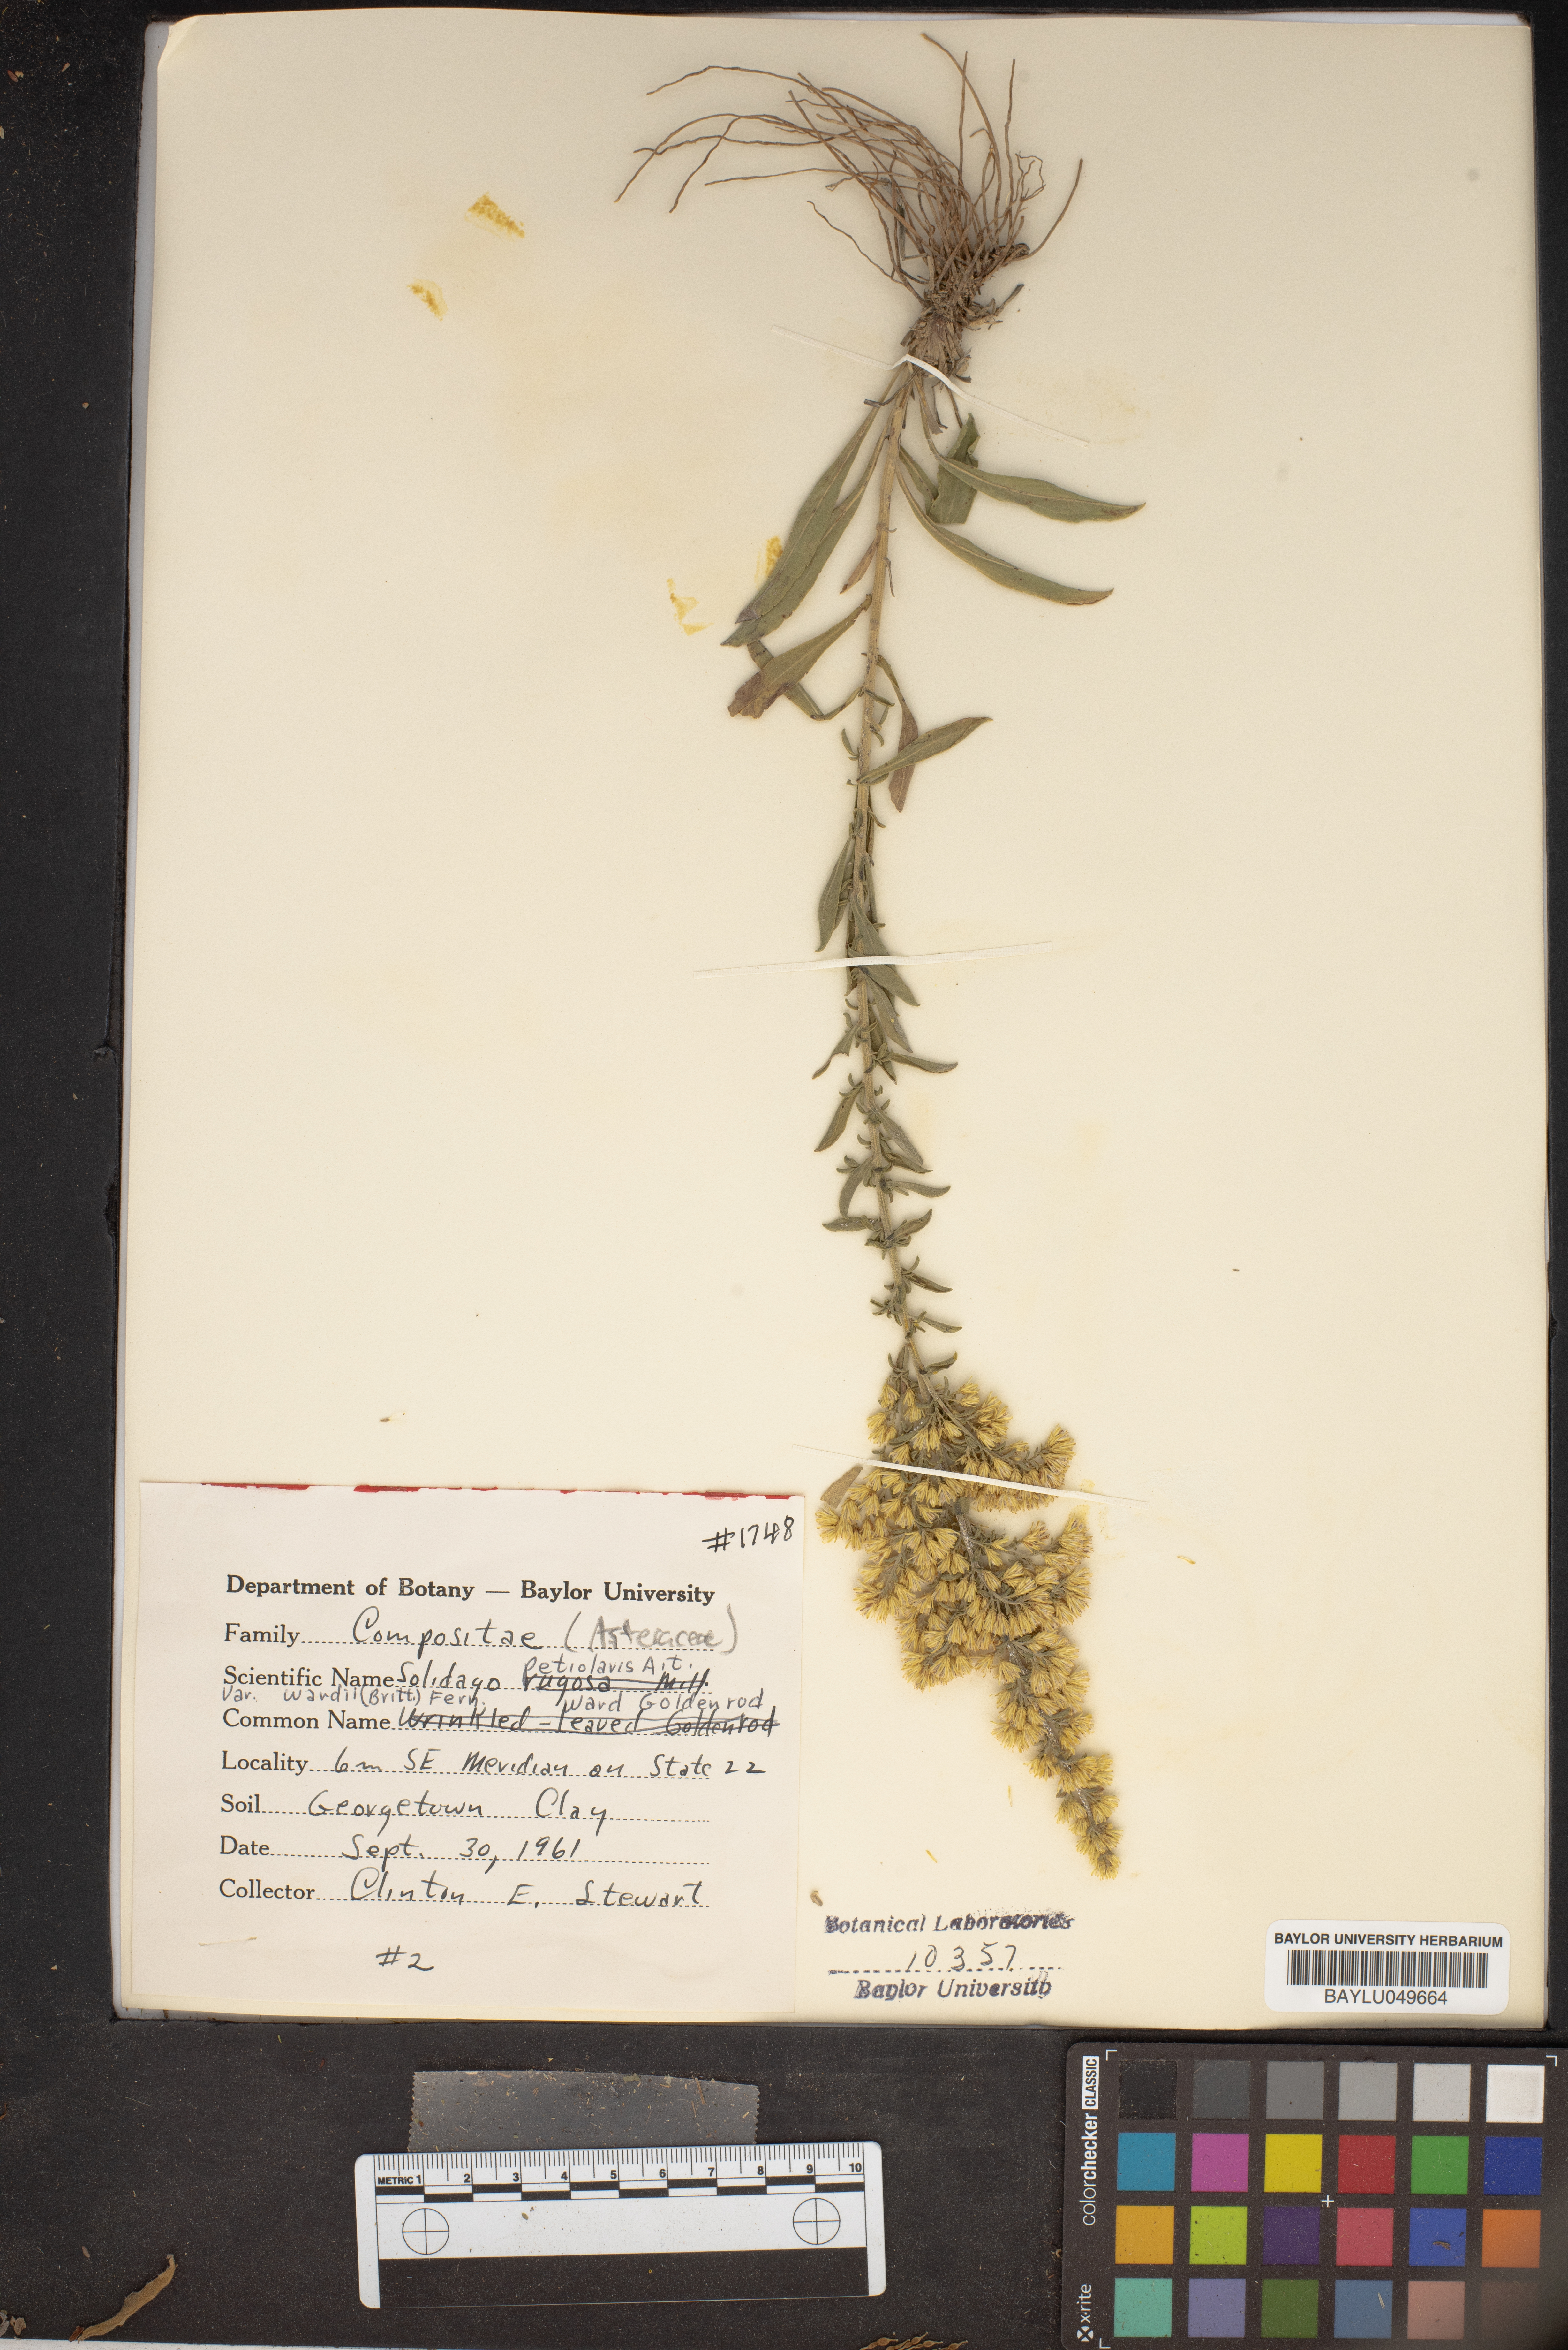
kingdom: Plantae
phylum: Tracheophyta
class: Magnoliopsida
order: Asterales
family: Asteraceae
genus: Solidago
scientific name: Solidago petiolaris
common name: Downy ragged goldenrod
